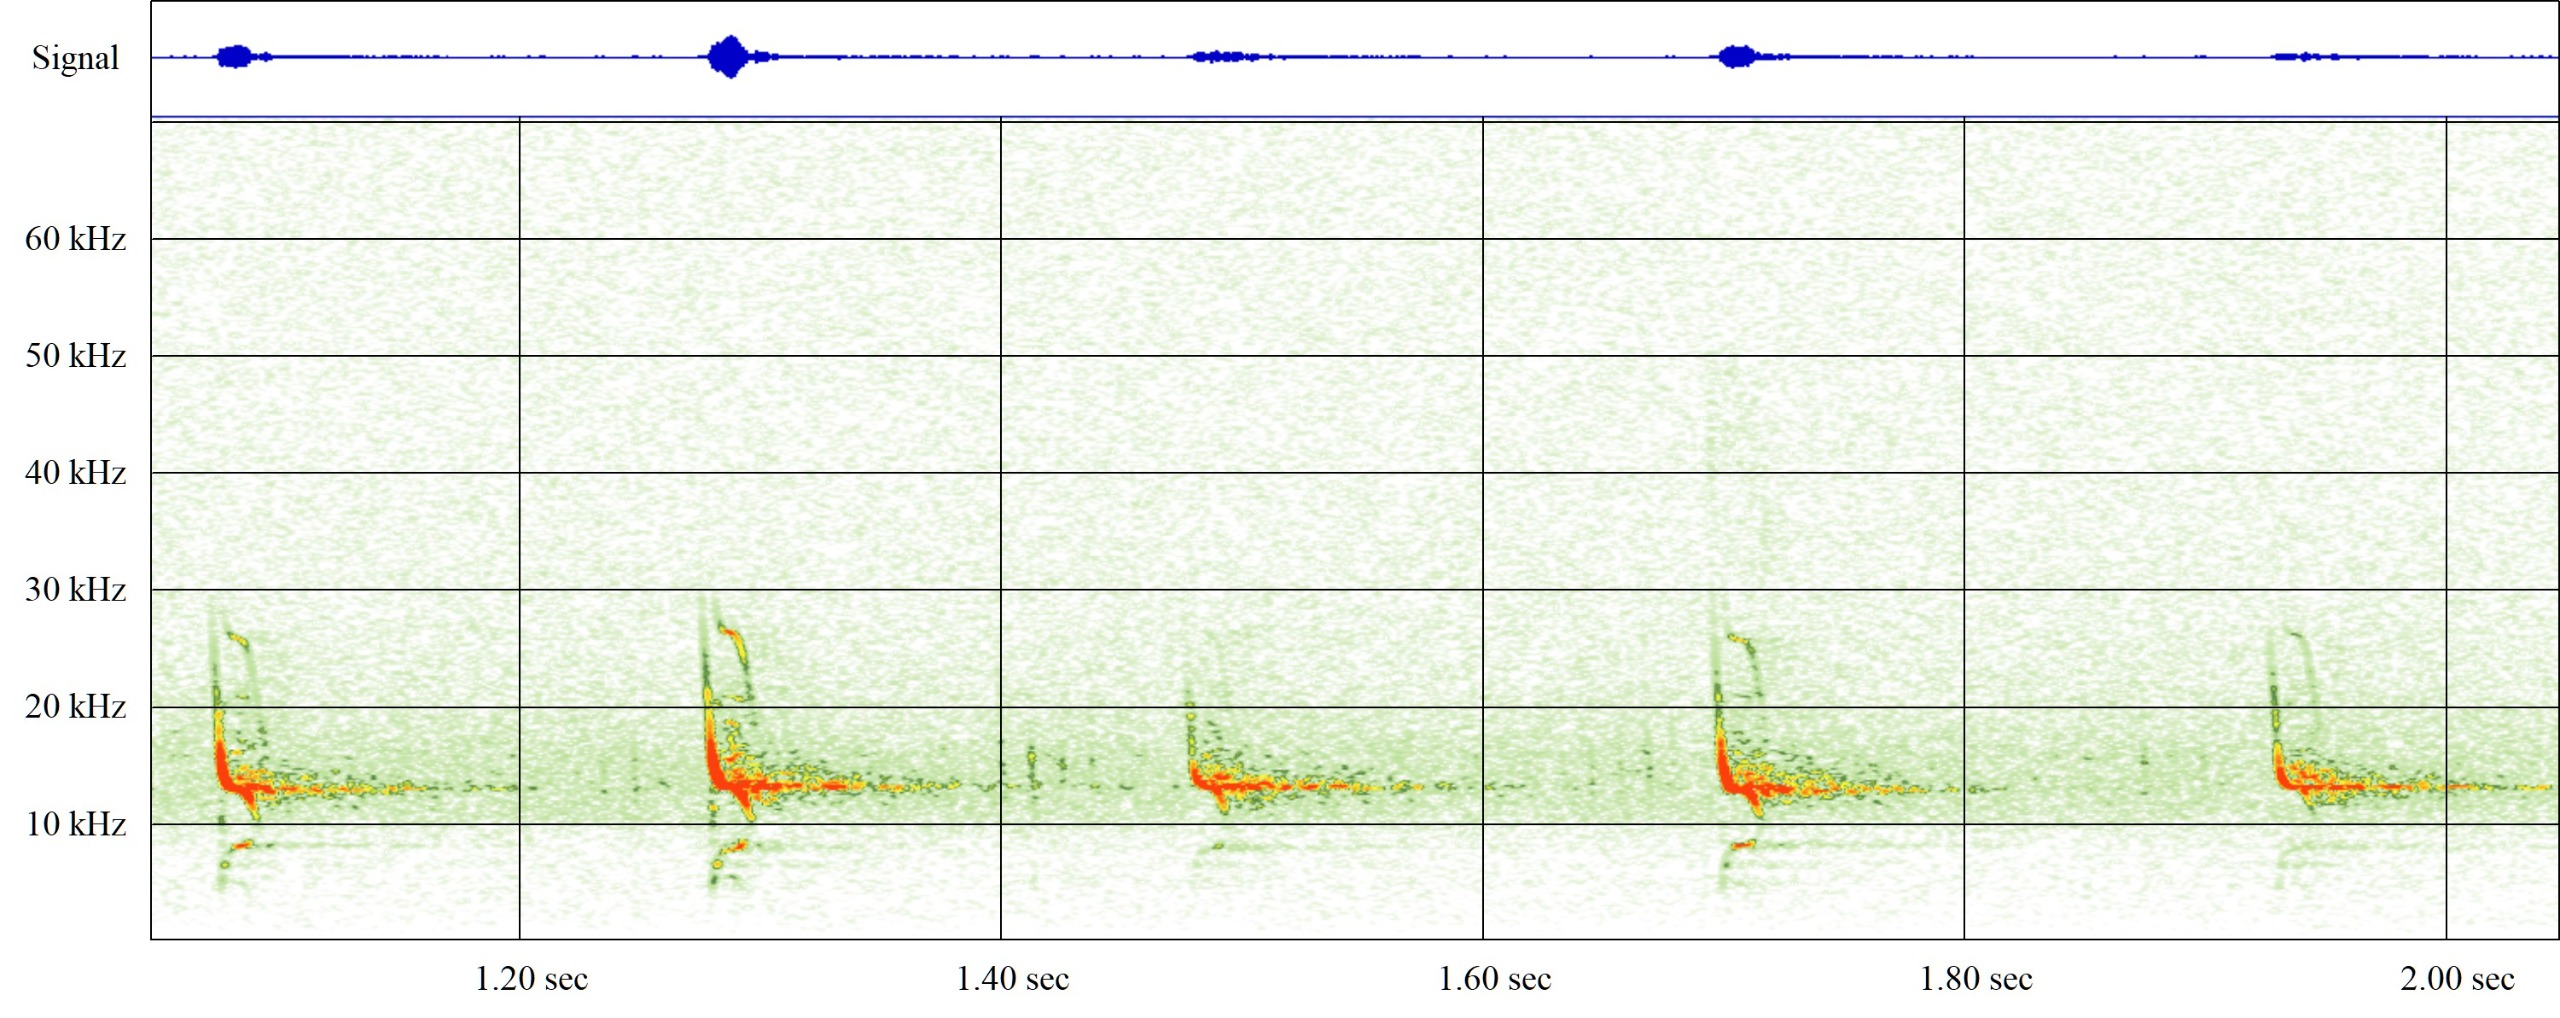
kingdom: Animalia
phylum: Chordata
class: Mammalia
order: Chiroptera
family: Vespertilionidae
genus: Vespertilio
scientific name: Vespertilio murinus
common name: Skimmelflagermus
